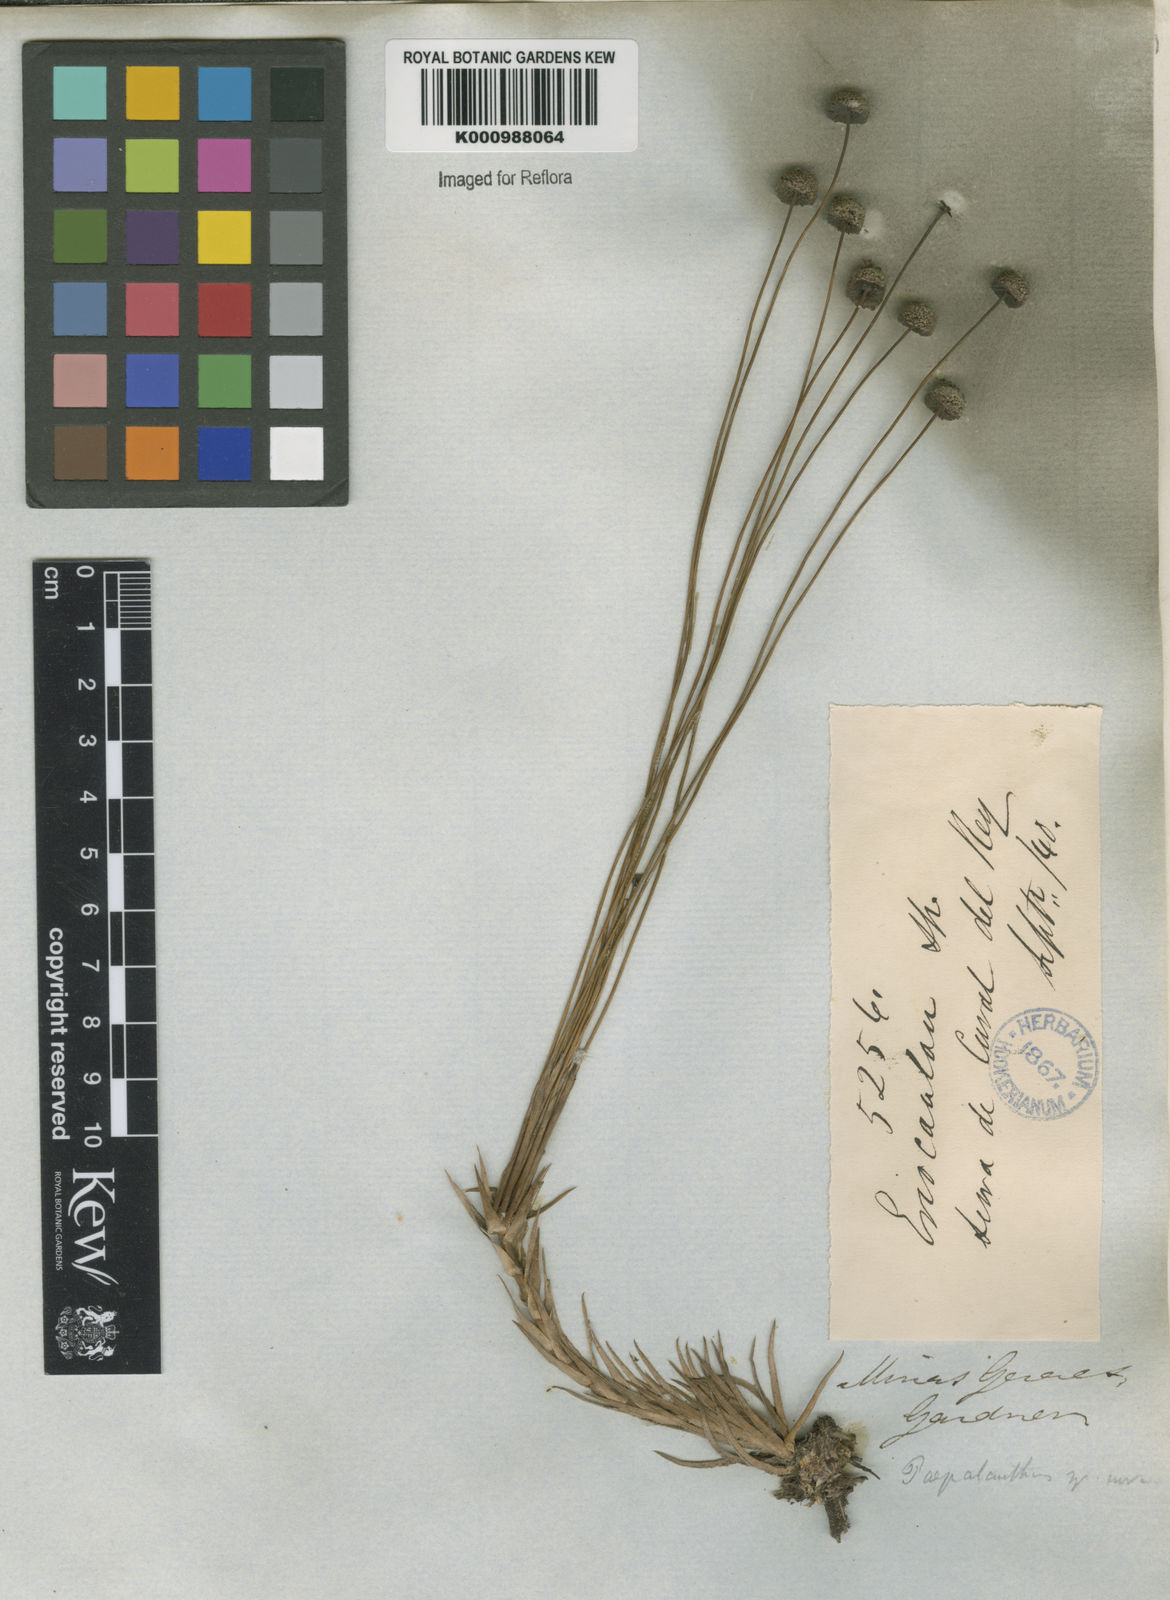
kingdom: Plantae
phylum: Tracheophyta
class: Liliopsida
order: Poales
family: Eriocaulaceae
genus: Paepalanthus
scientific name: Paepalanthus
